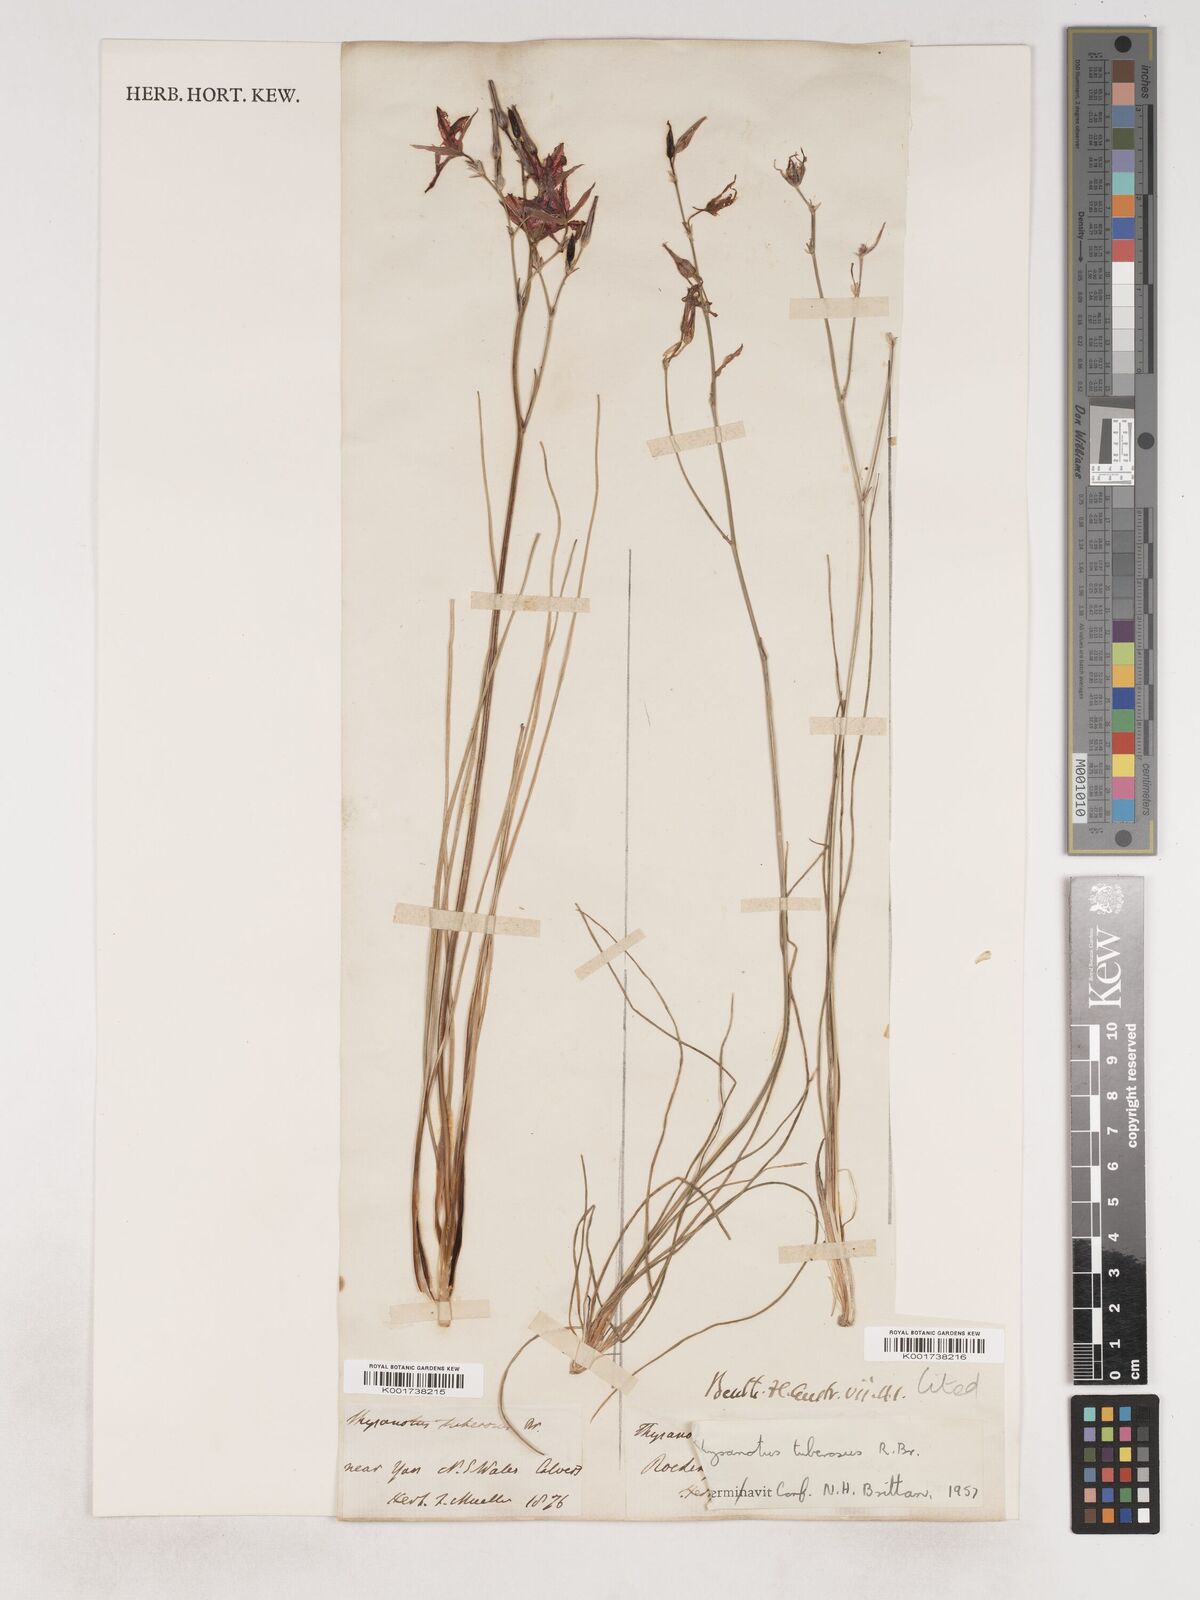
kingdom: Plantae
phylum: Tracheophyta
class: Liliopsida
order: Asparagales
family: Asparagaceae
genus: Thysanotus
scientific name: Thysanotus tuberosus
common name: Common fringed-lily
